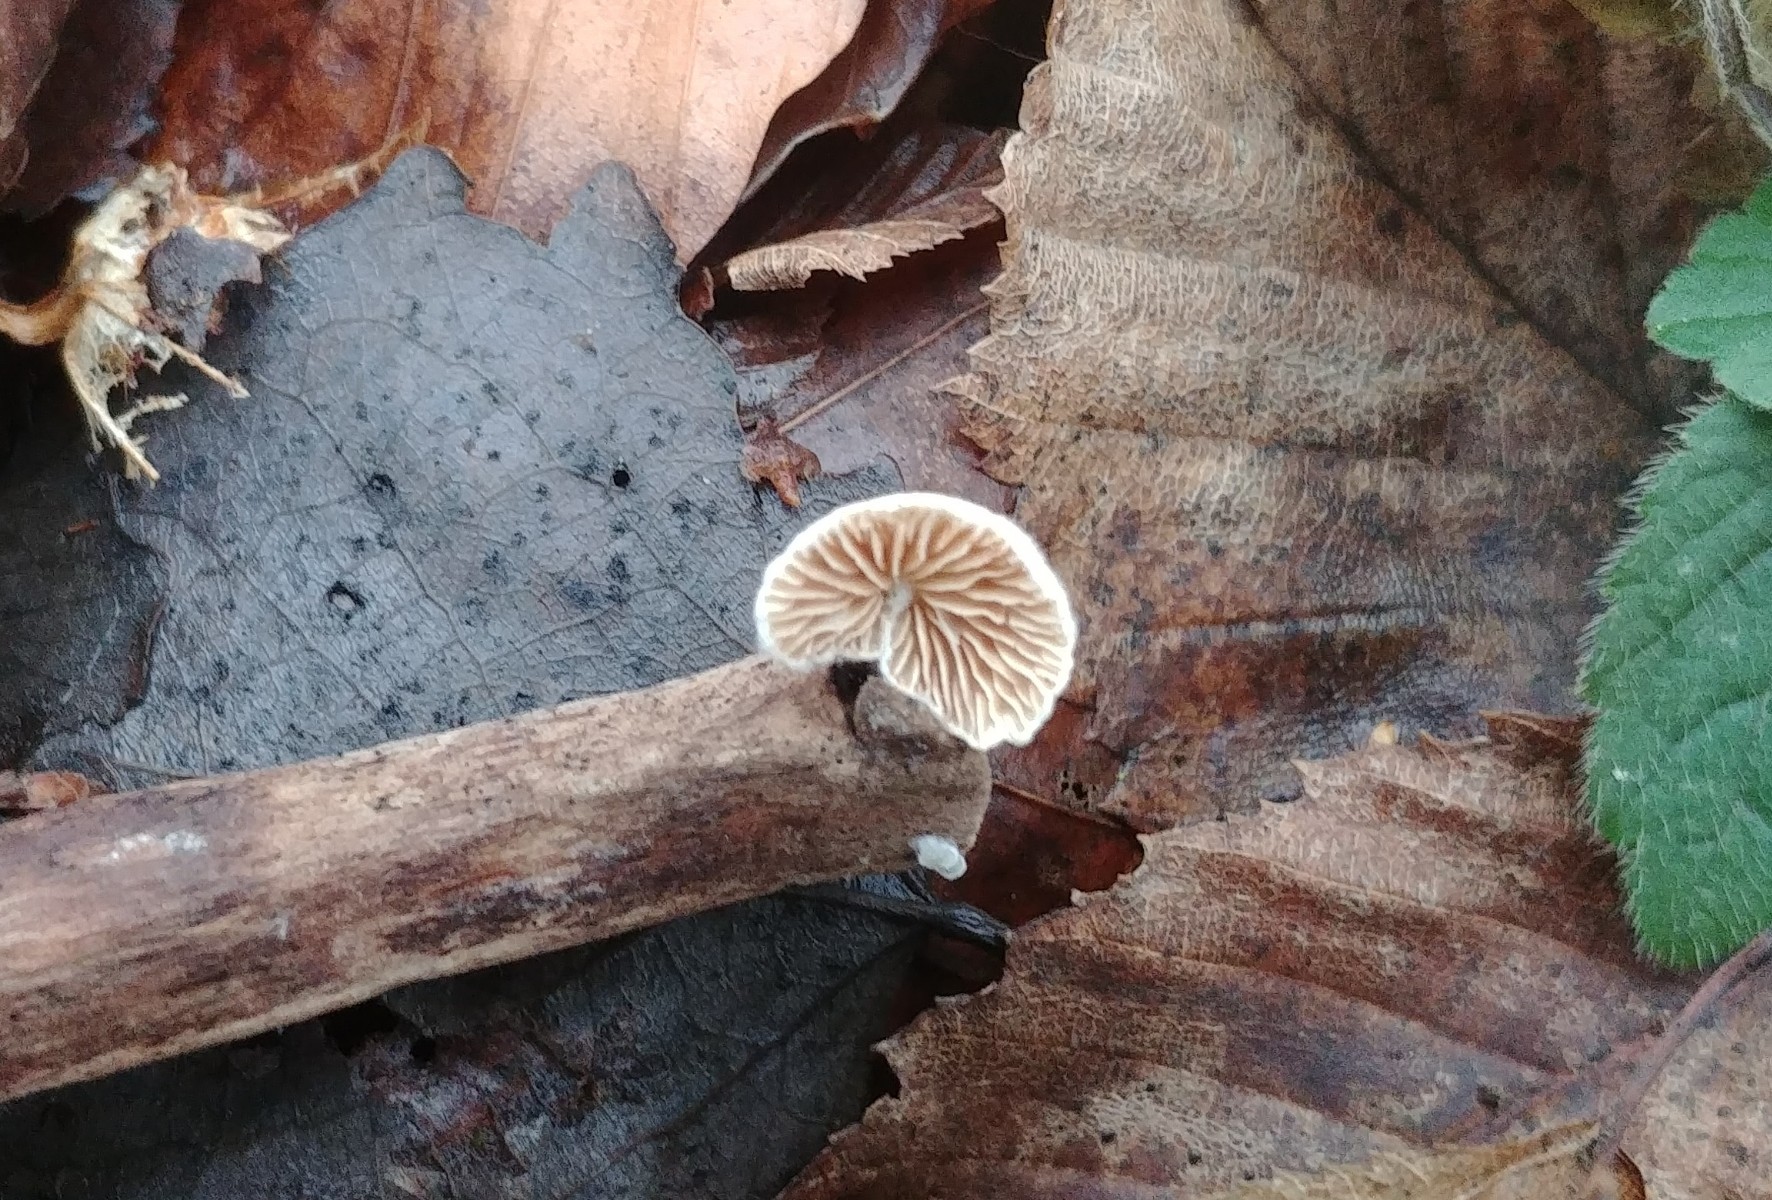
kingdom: Fungi
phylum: Basidiomycota
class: Agaricomycetes
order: Agaricales
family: Crepidotaceae
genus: Crepidotus
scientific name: Crepidotus cesatii
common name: almindelig muslingesvamp
